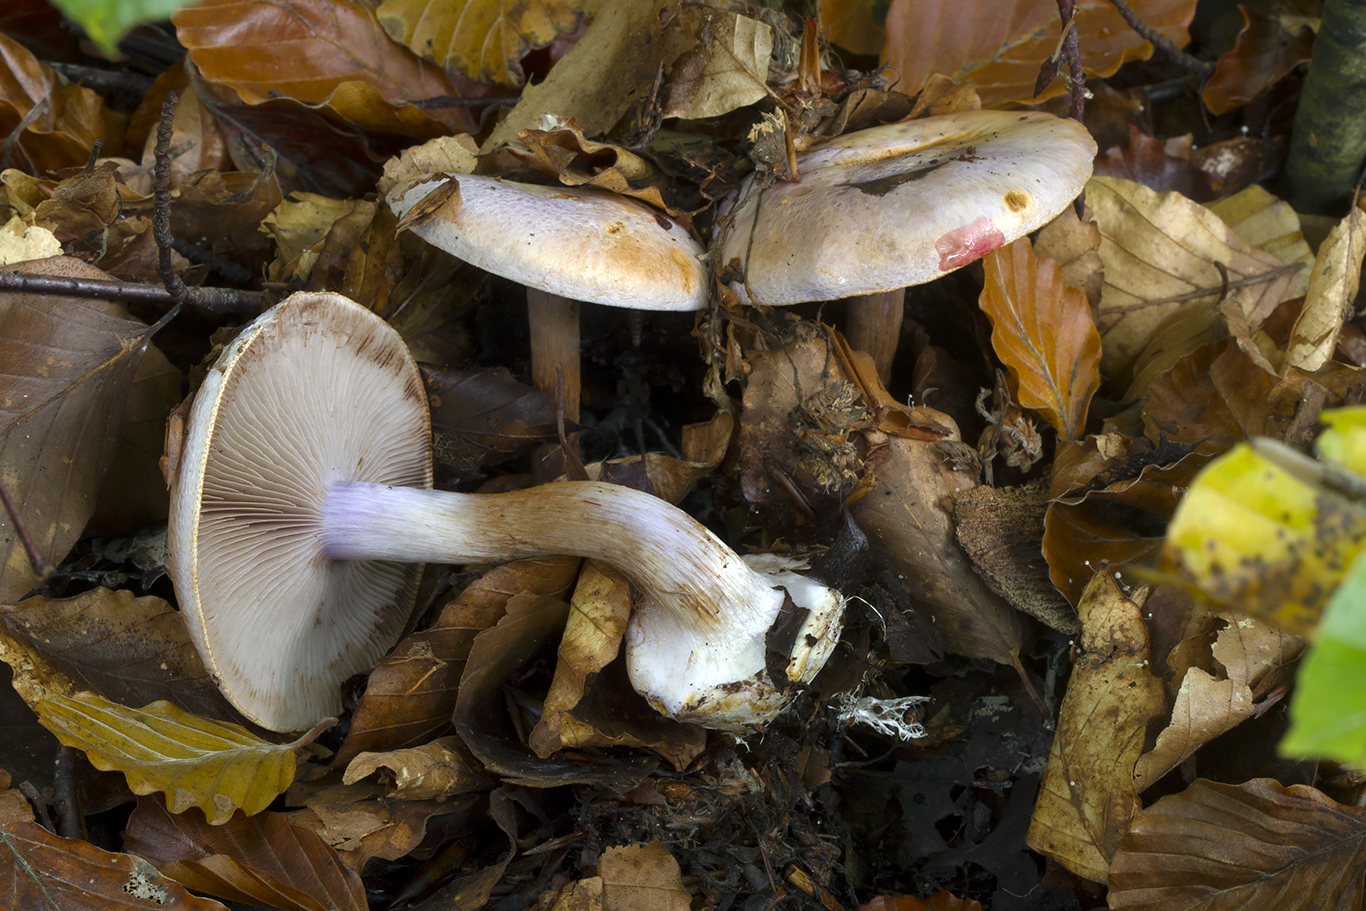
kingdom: Fungi
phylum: Basidiomycota
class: Agaricomycetes
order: Agaricales
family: Cortinariaceae
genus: Calonarius
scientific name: Calonarius sodagnitus
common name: violblå slørhat
